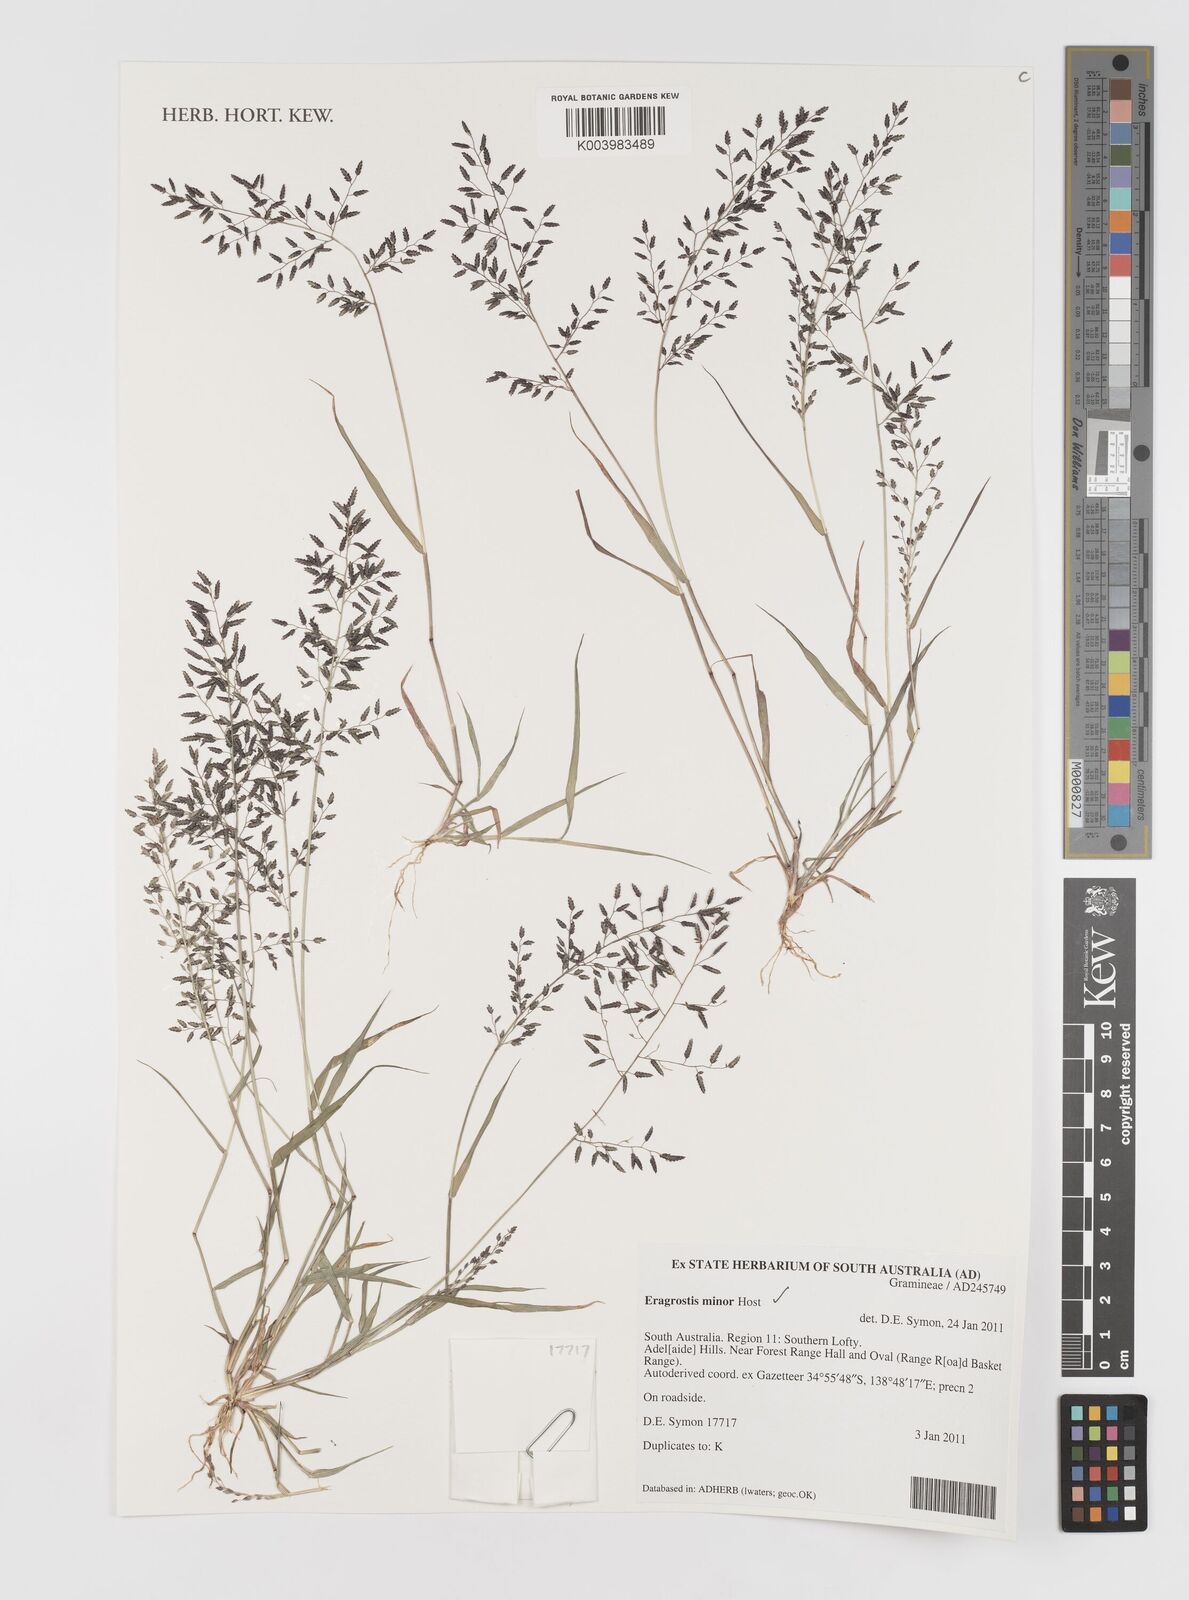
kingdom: Plantae
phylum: Tracheophyta
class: Liliopsida
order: Poales
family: Poaceae
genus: Eragrostis
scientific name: Eragrostis minor
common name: Small love-grass
